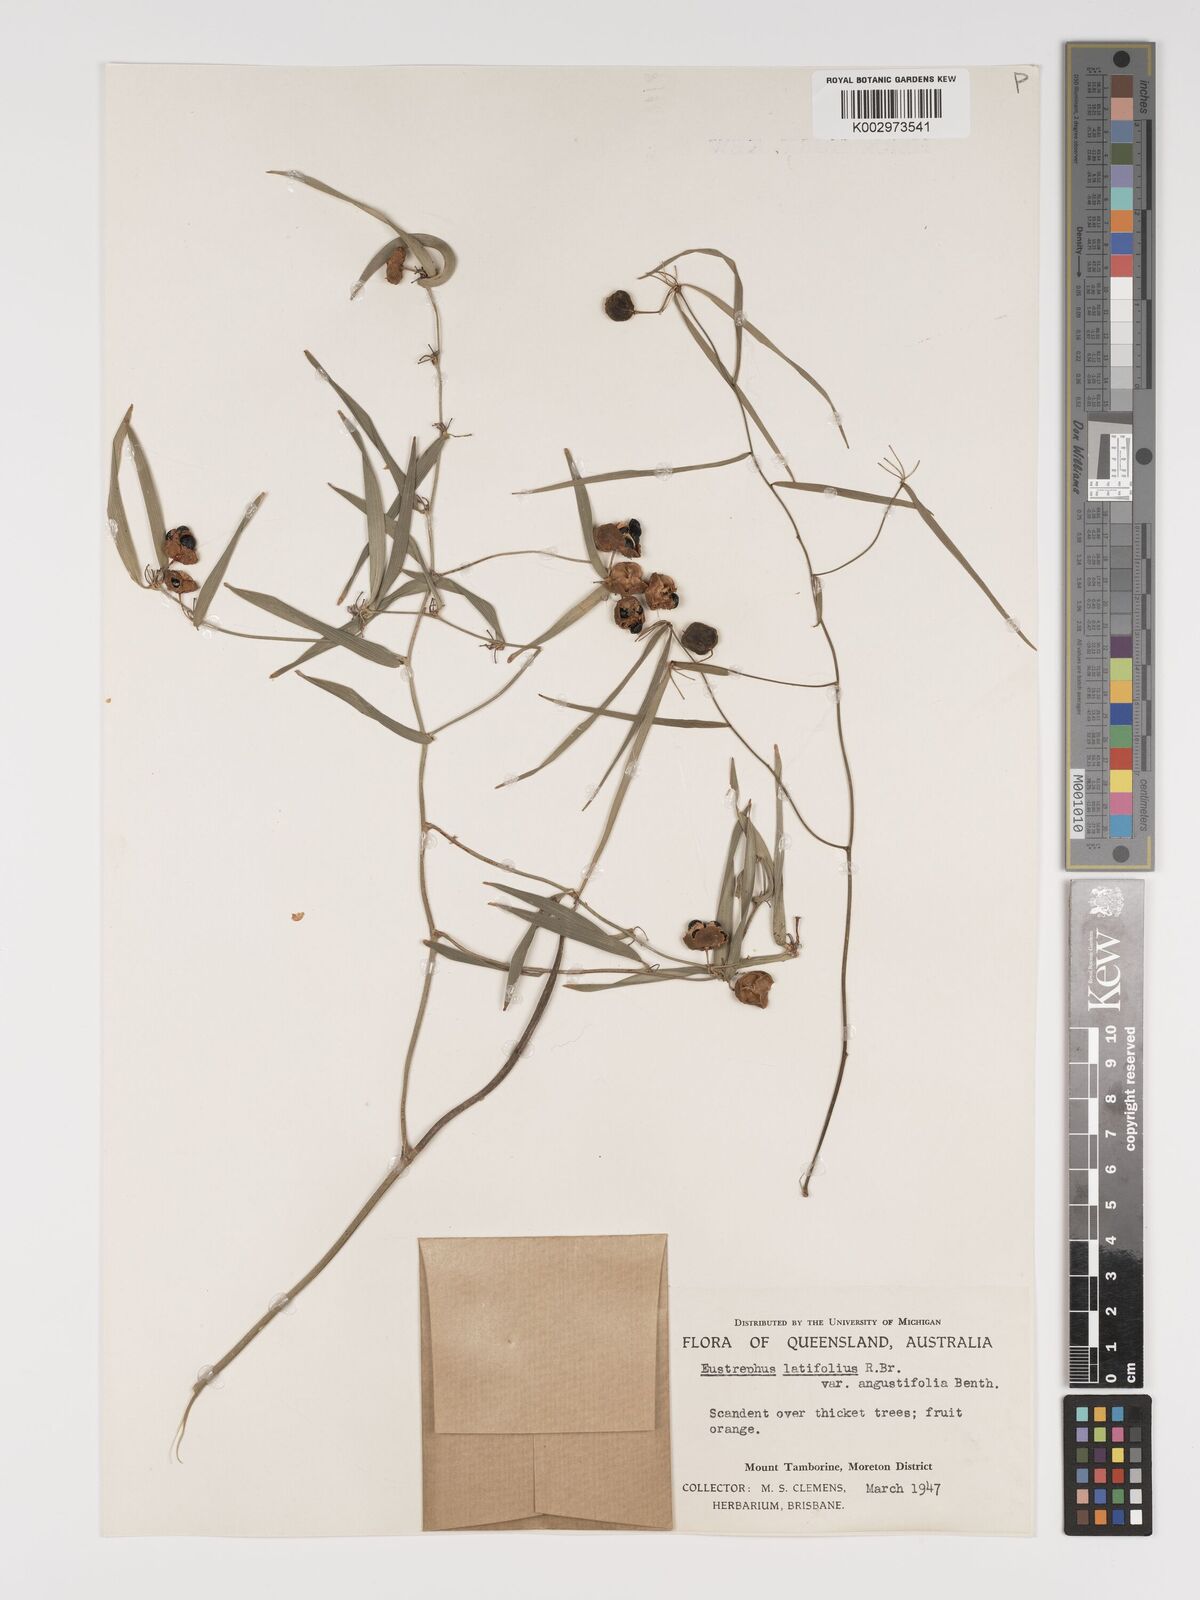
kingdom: Plantae
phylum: Tracheophyta
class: Liliopsida
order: Asparagales
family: Asparagaceae
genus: Eustrephus
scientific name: Eustrephus latifolius
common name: Orangevine
